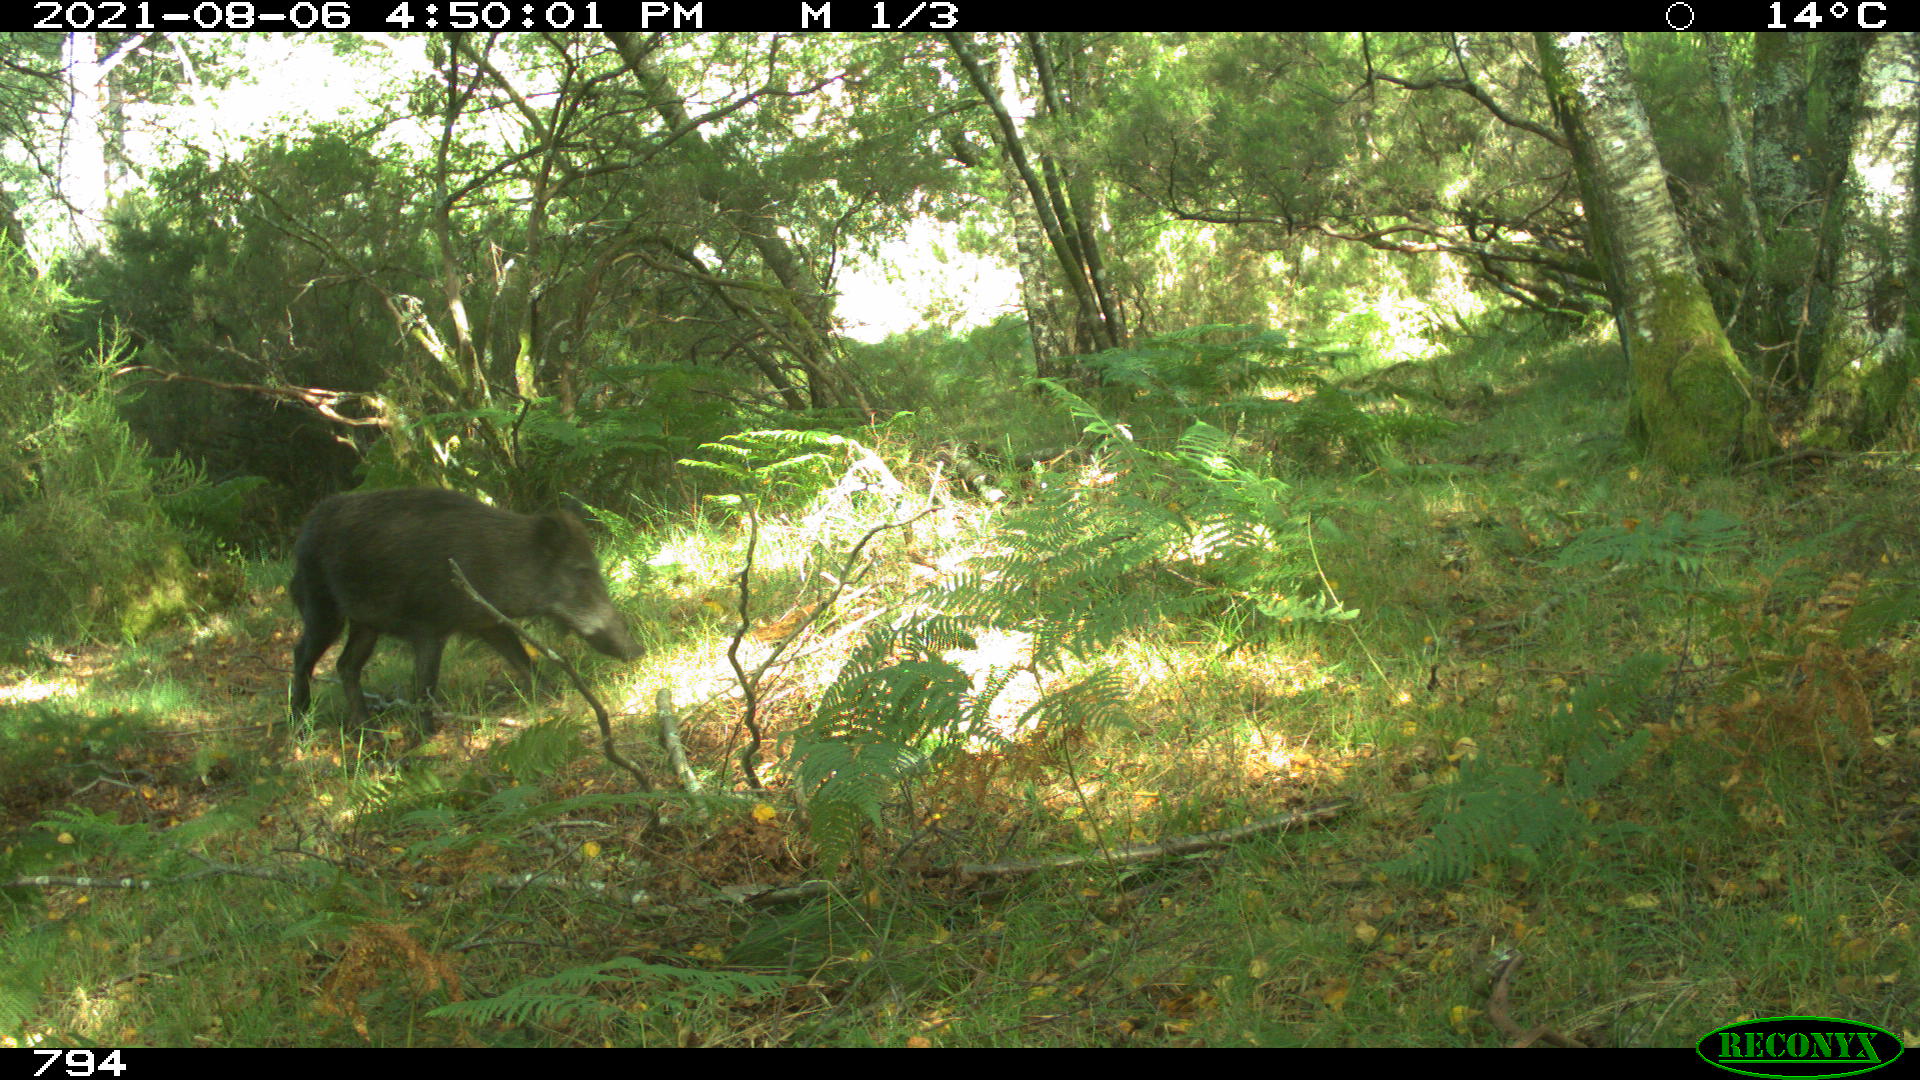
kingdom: Animalia
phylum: Chordata
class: Mammalia
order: Artiodactyla
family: Suidae
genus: Sus
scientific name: Sus scrofa
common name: Wild boar
